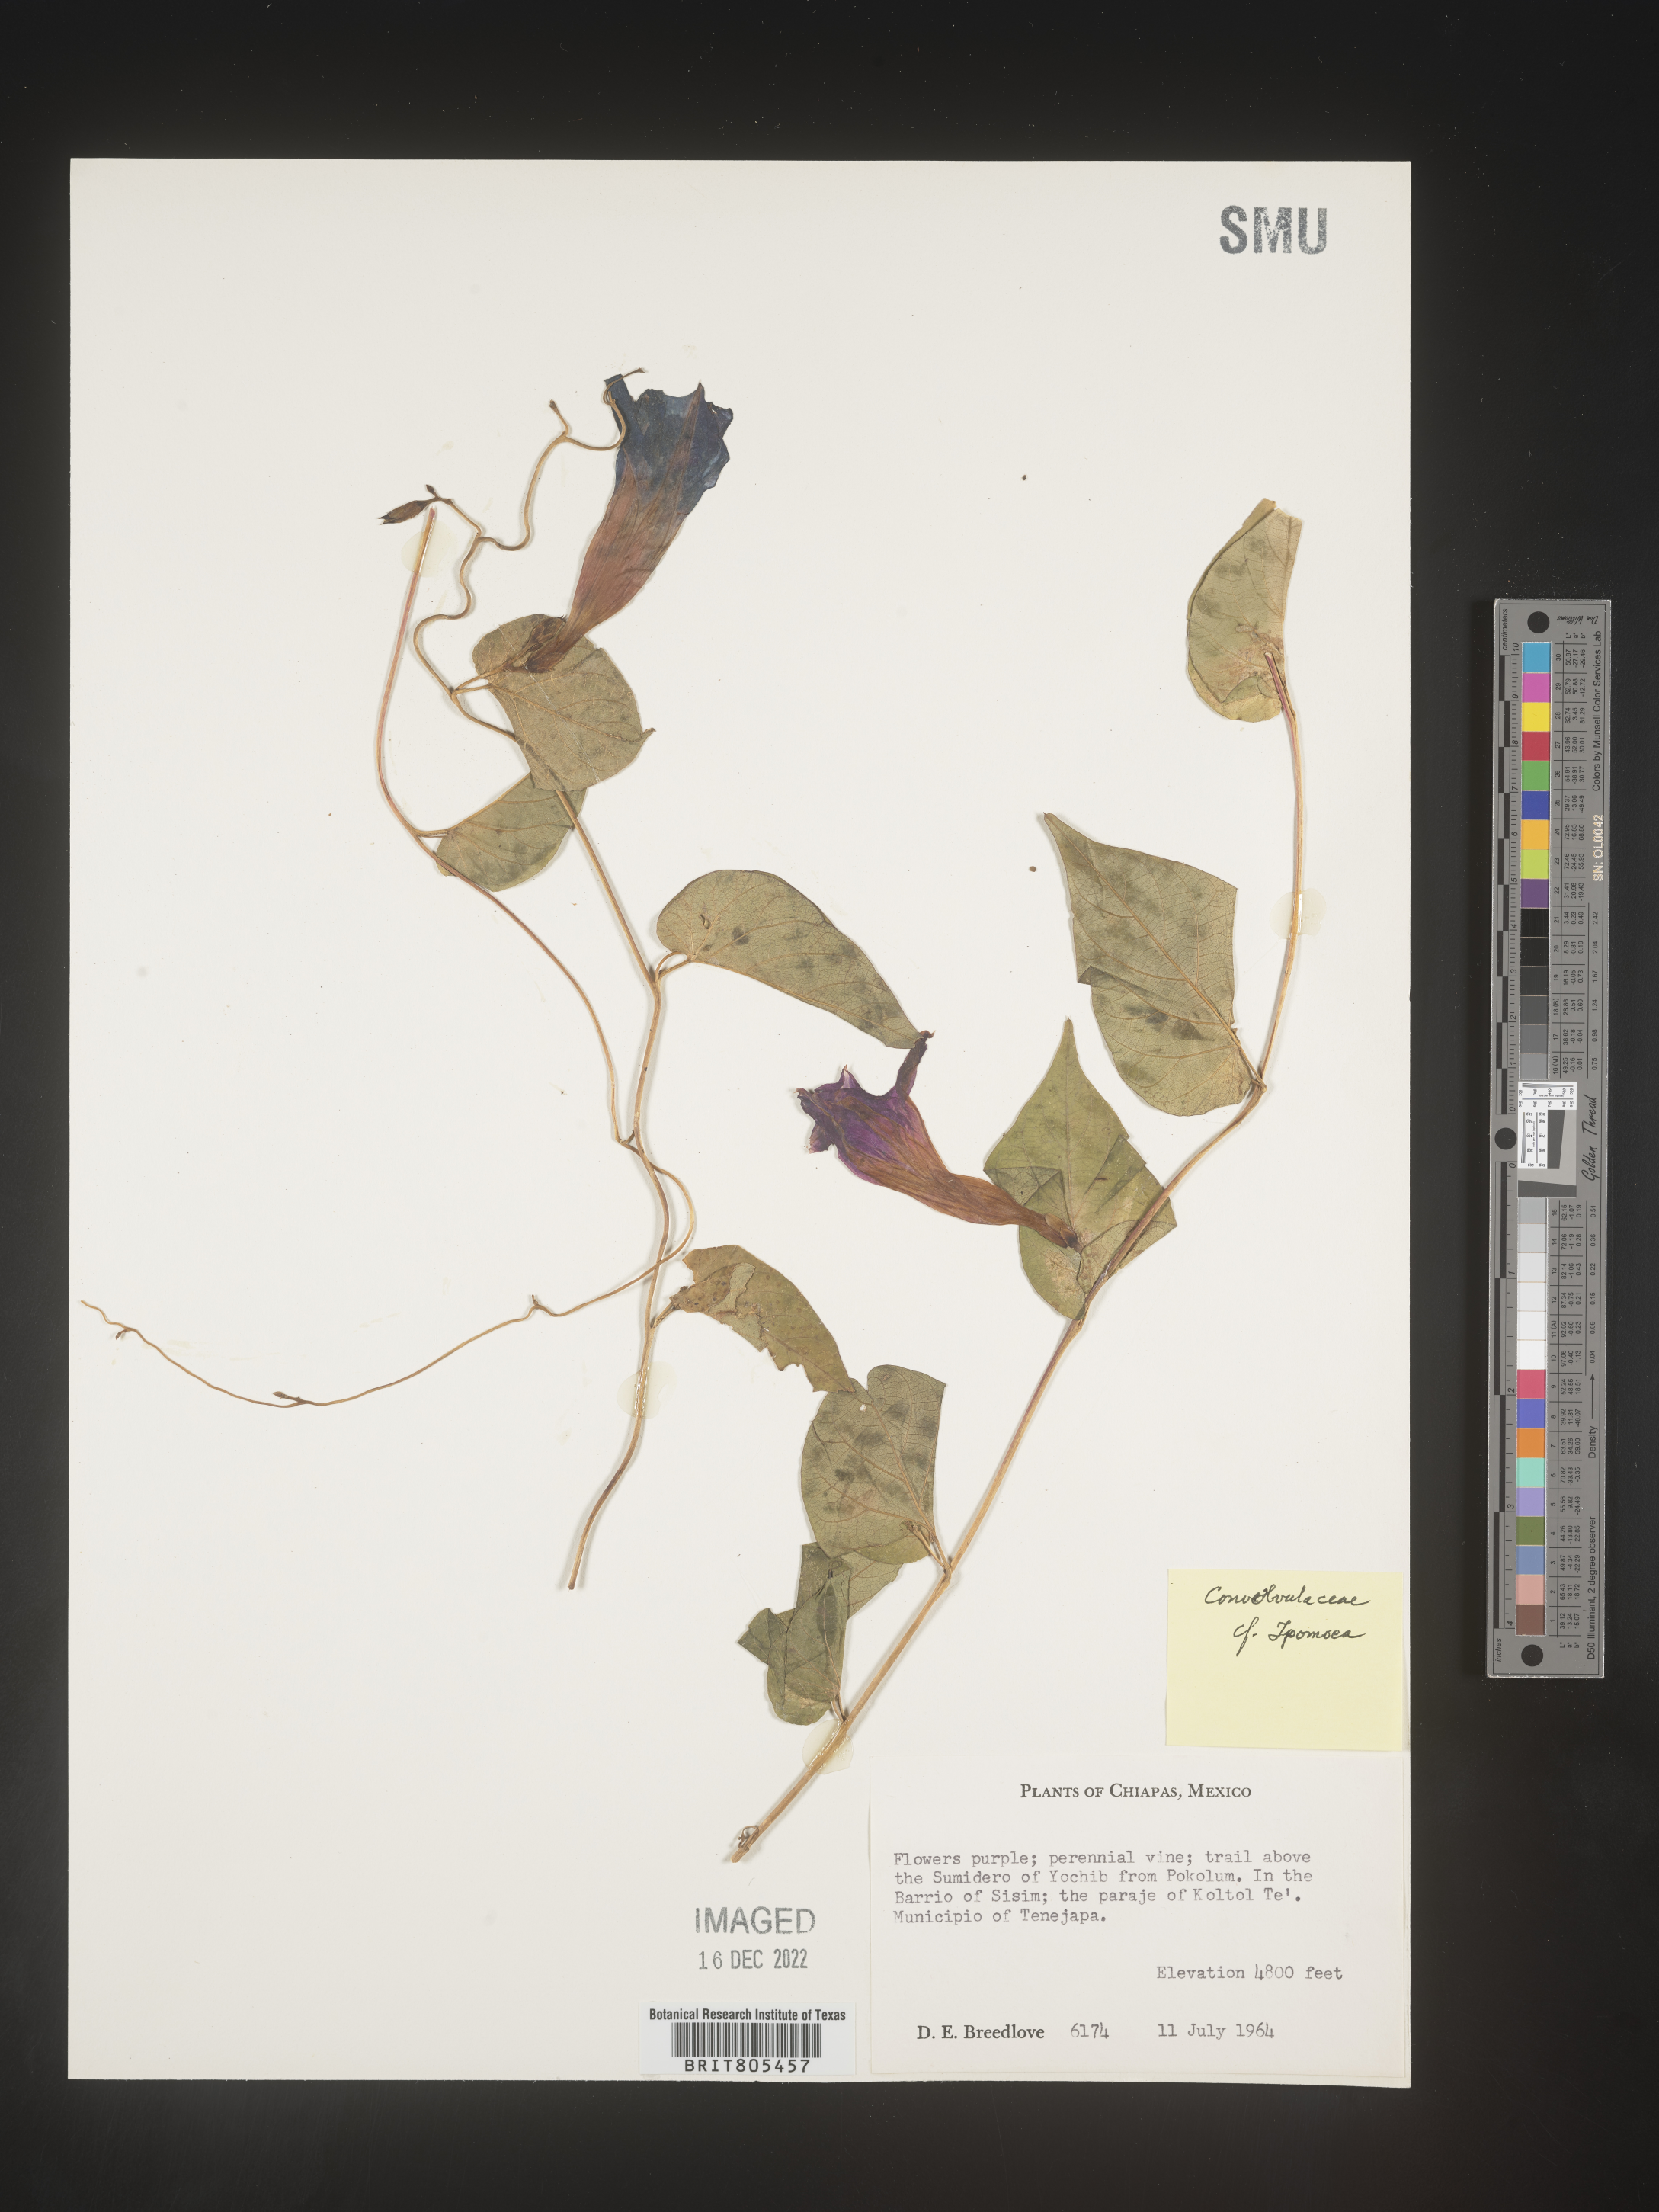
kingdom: Plantae
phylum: Tracheophyta
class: Magnoliopsida
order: Solanales
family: Convolvulaceae
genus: Ipomoea
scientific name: Ipomoea
